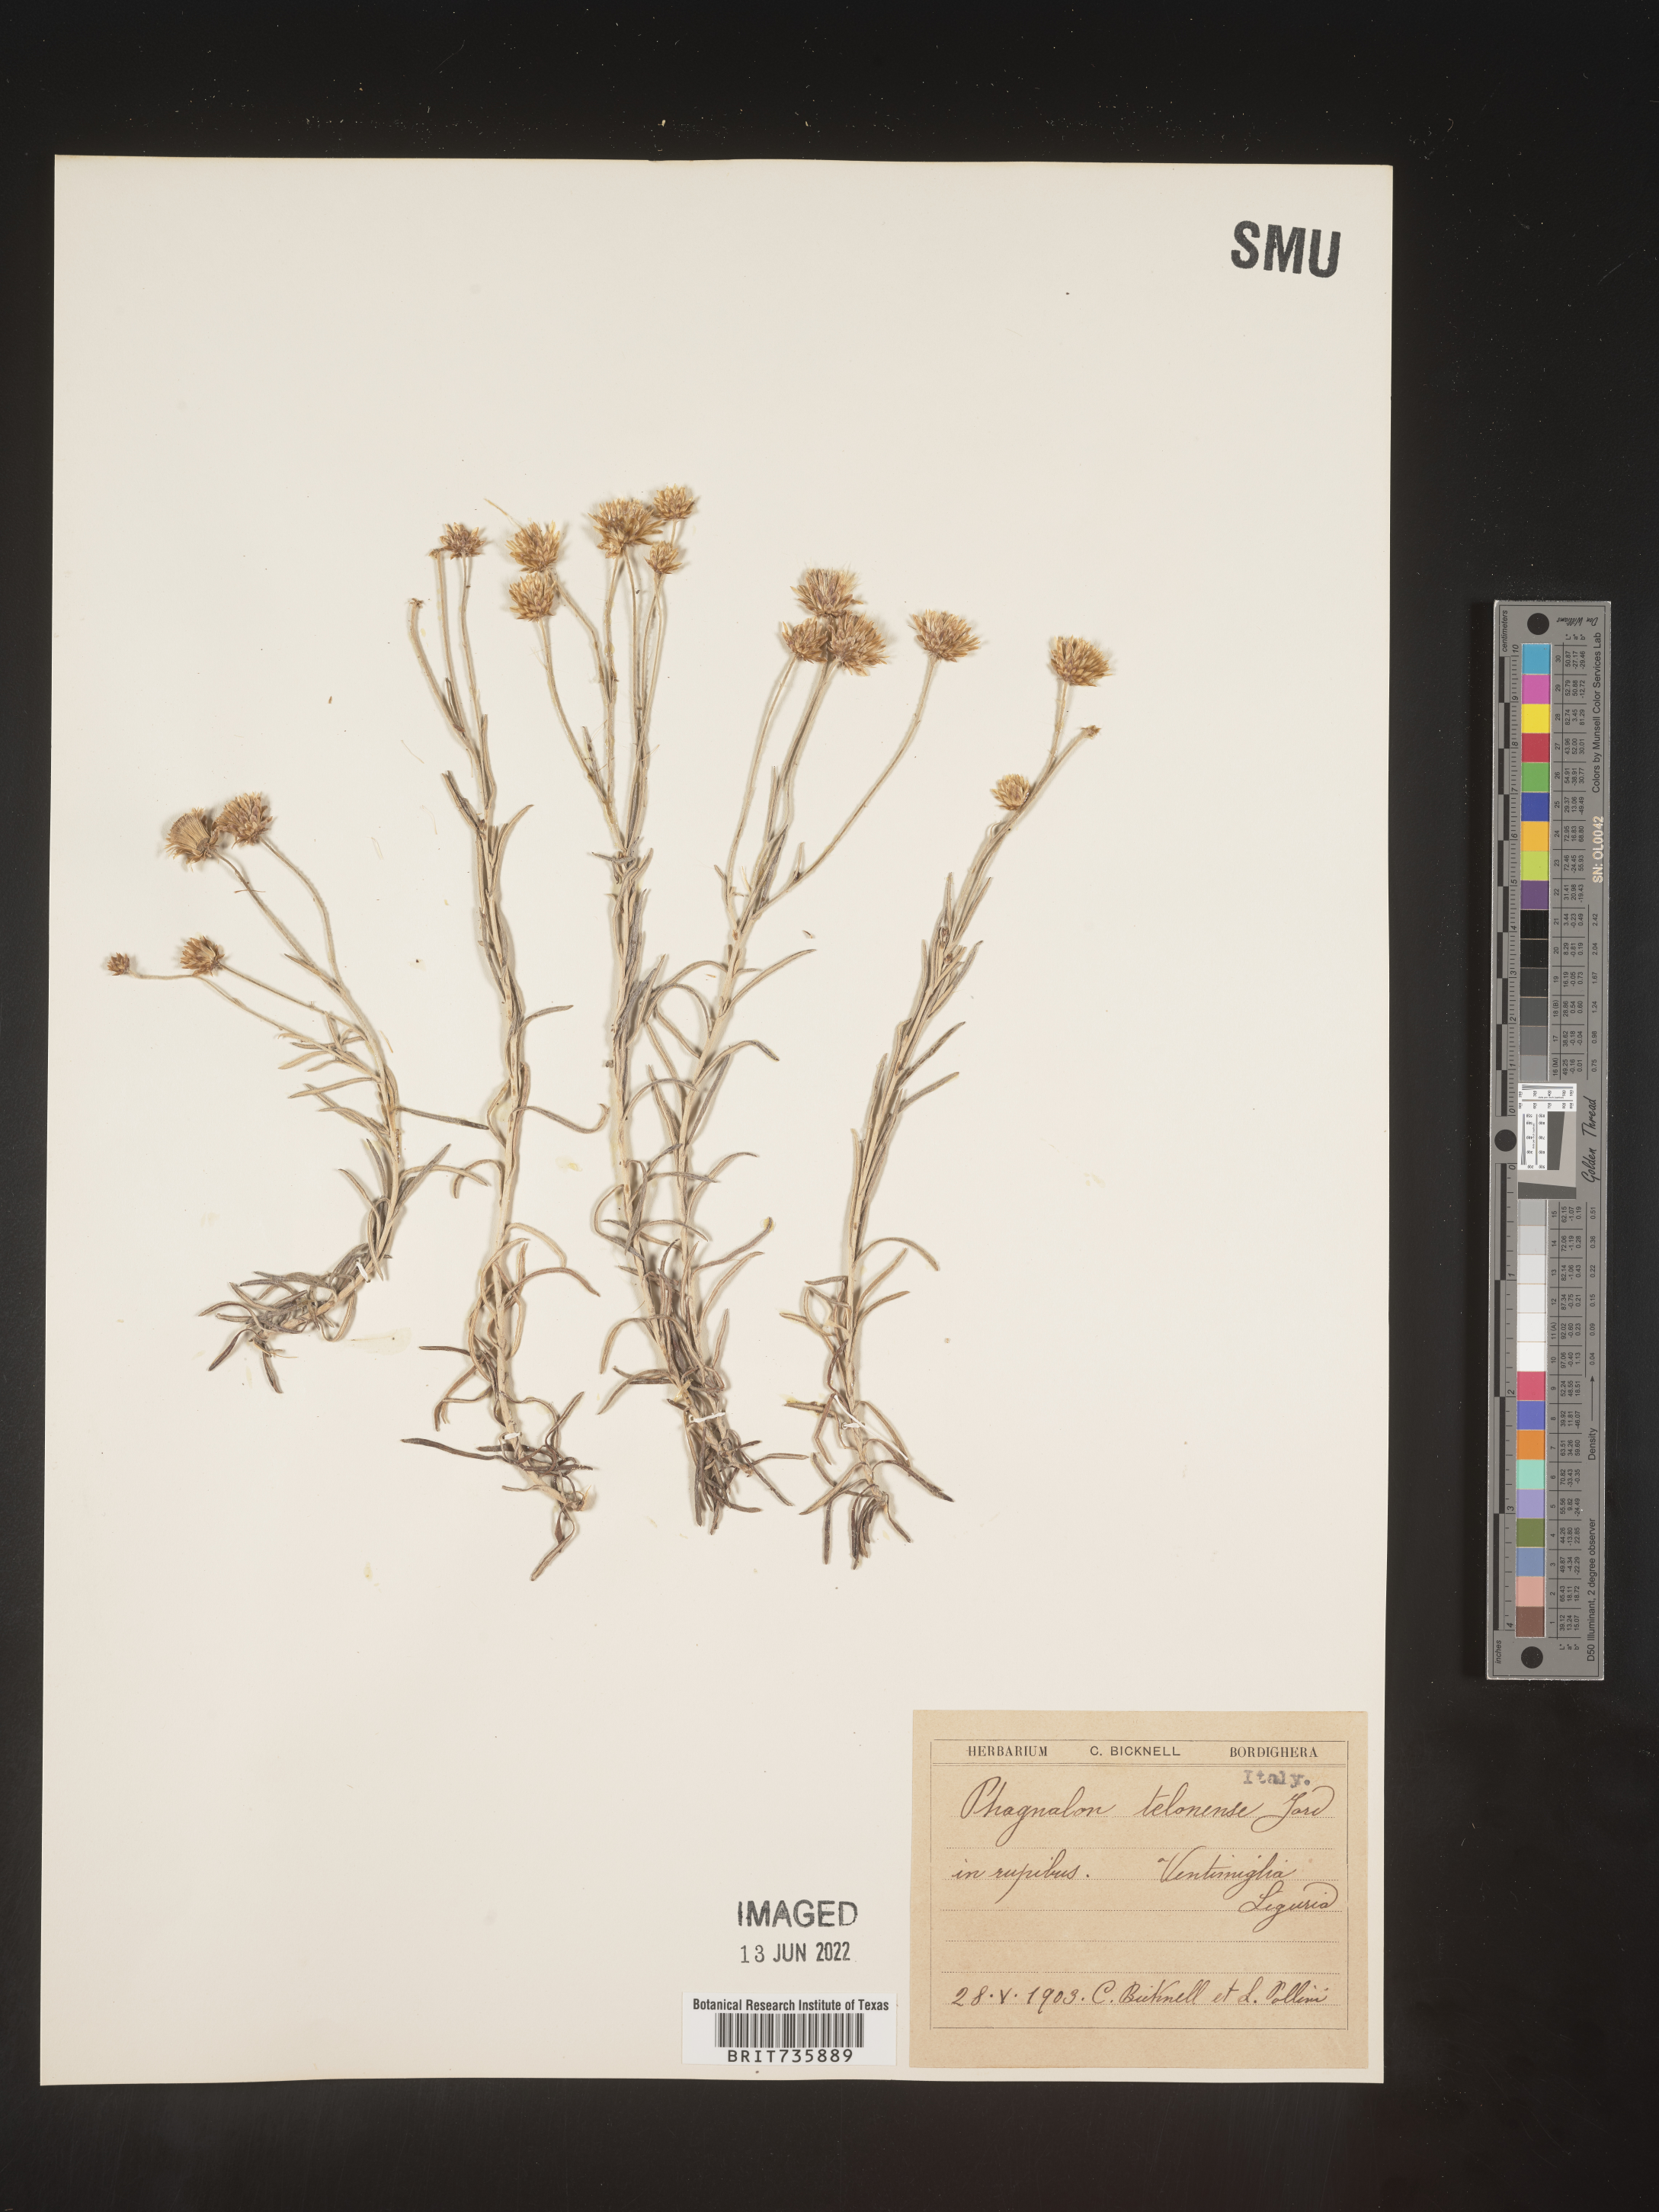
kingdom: Plantae
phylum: Tracheophyta
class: Magnoliopsida
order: Asterales
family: Asteraceae
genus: Phagnalon
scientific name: Phagnalon
